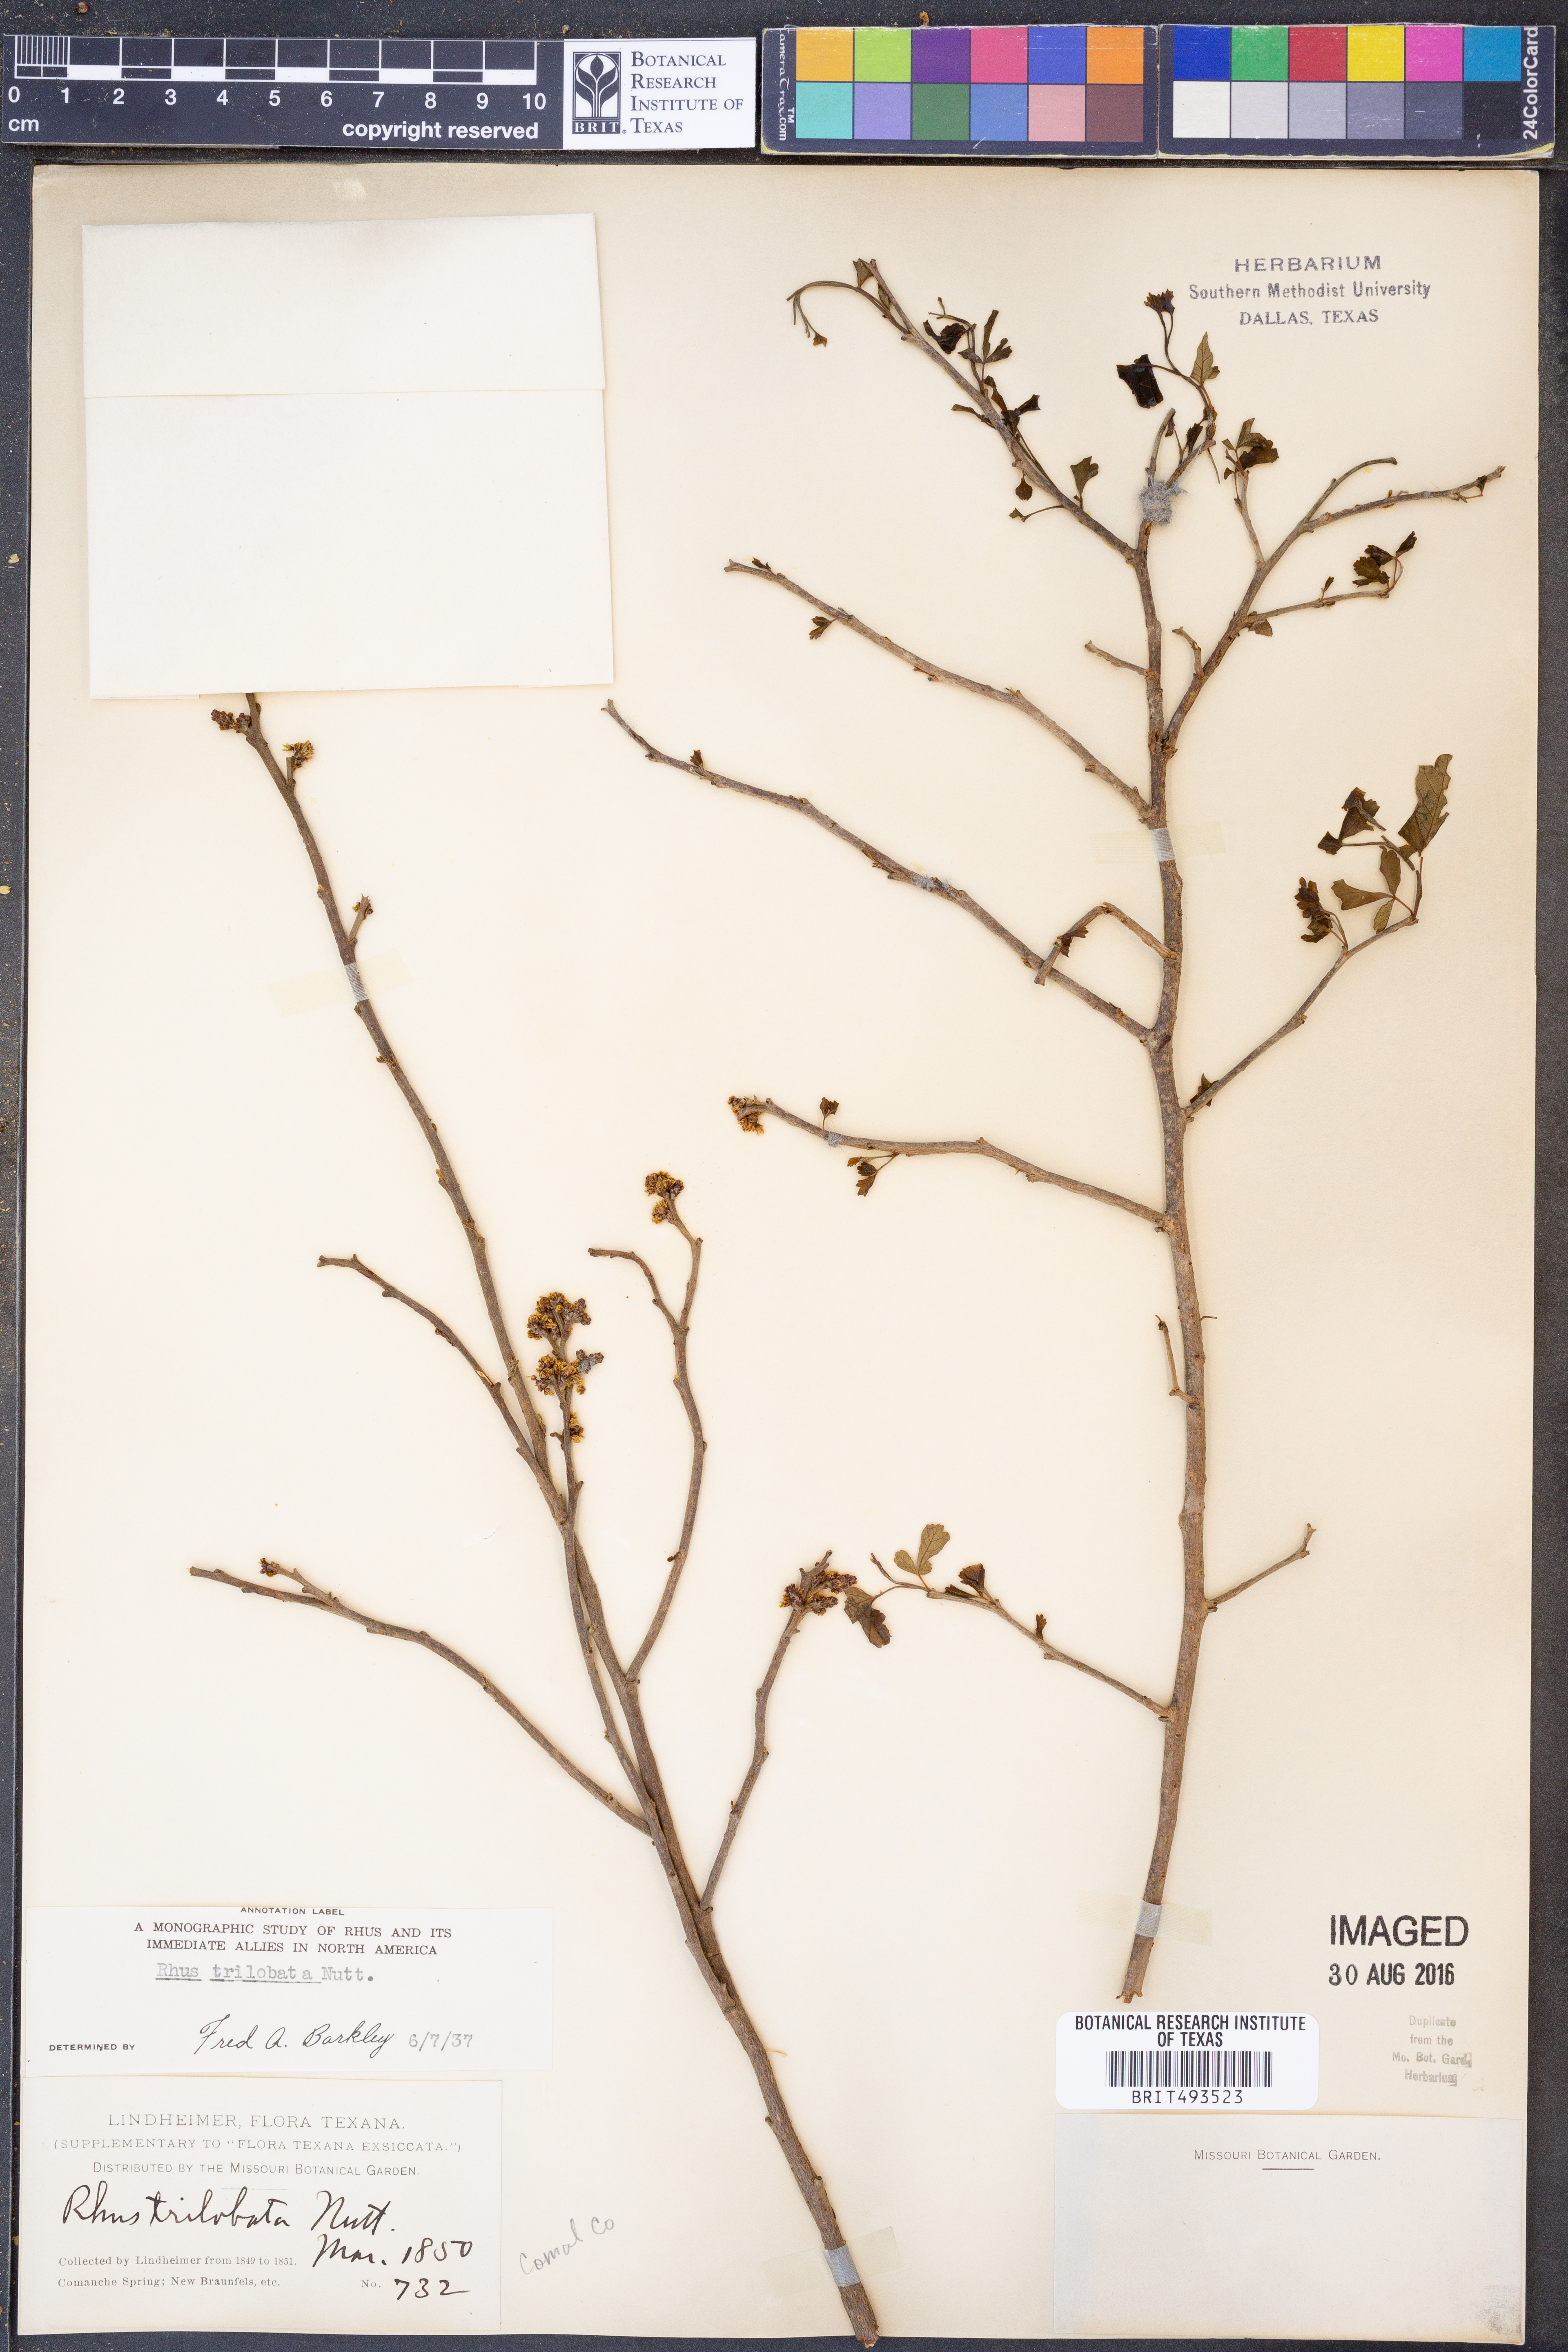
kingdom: Plantae
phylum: Tracheophyta
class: Magnoliopsida
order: Sapindales
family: Anacardiaceae
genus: Rhus
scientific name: Rhus trilobata
